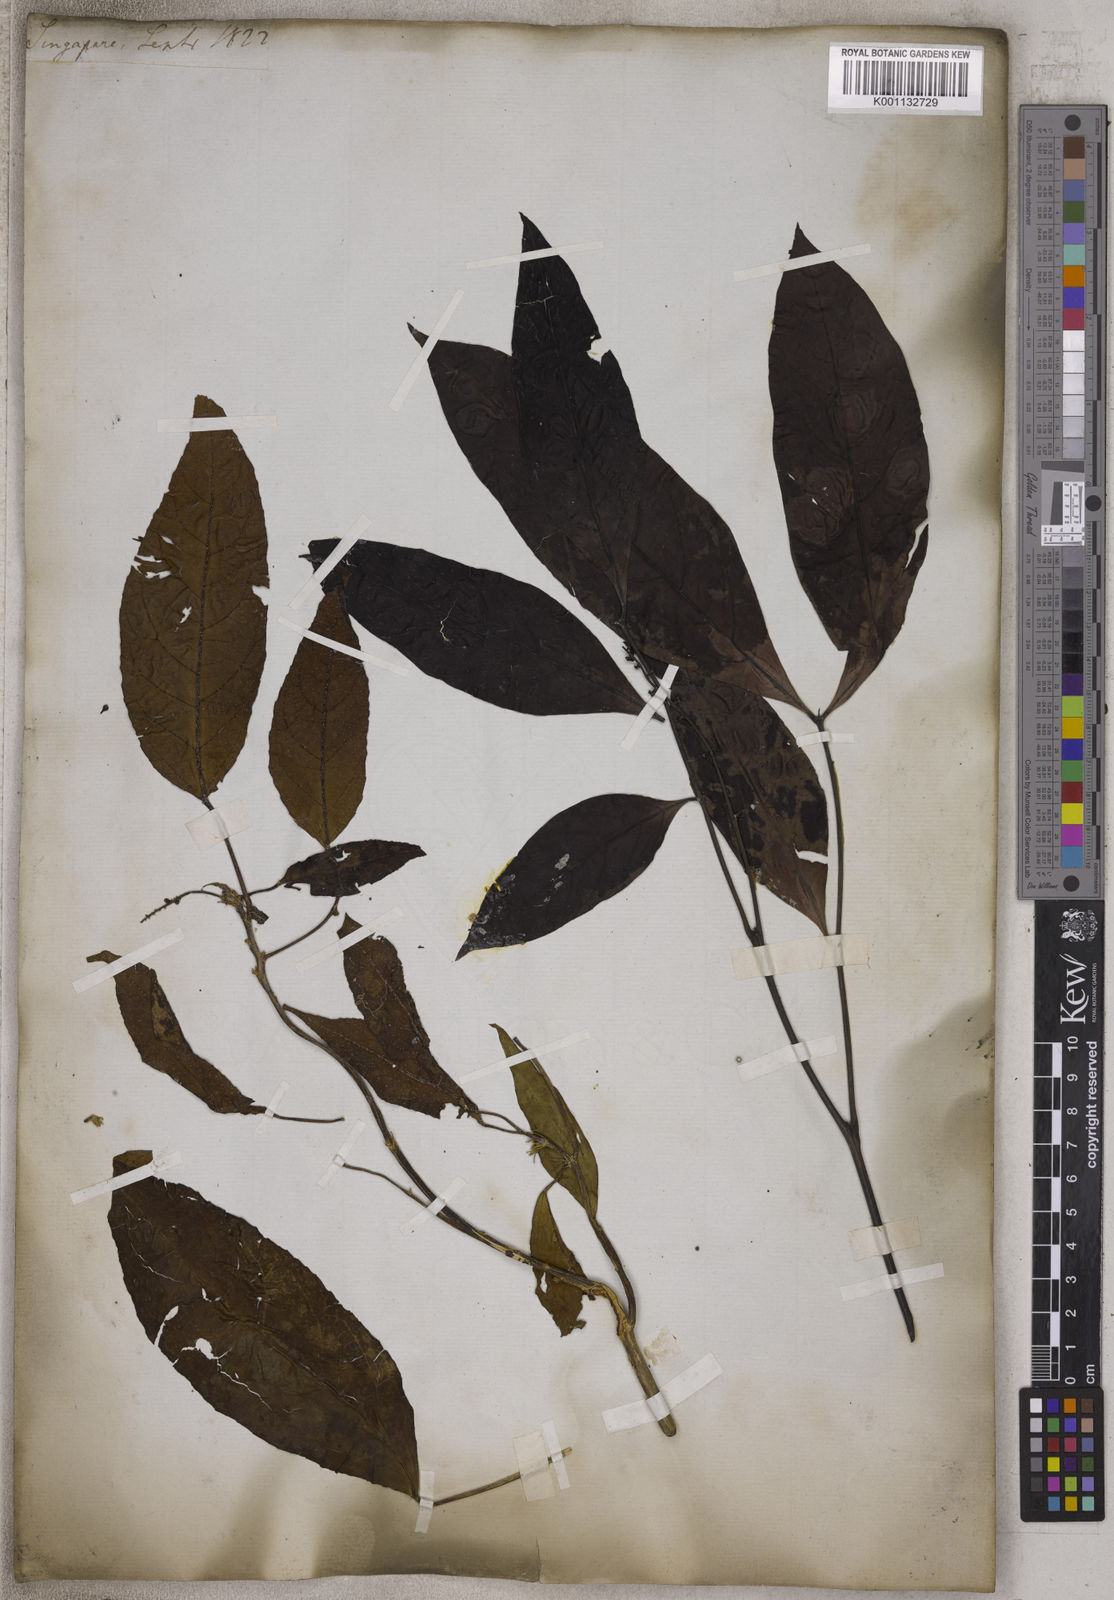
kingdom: Plantae
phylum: Tracheophyta
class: Magnoliopsida
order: Sapindales
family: Sapindaceae
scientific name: Sapindaceae
